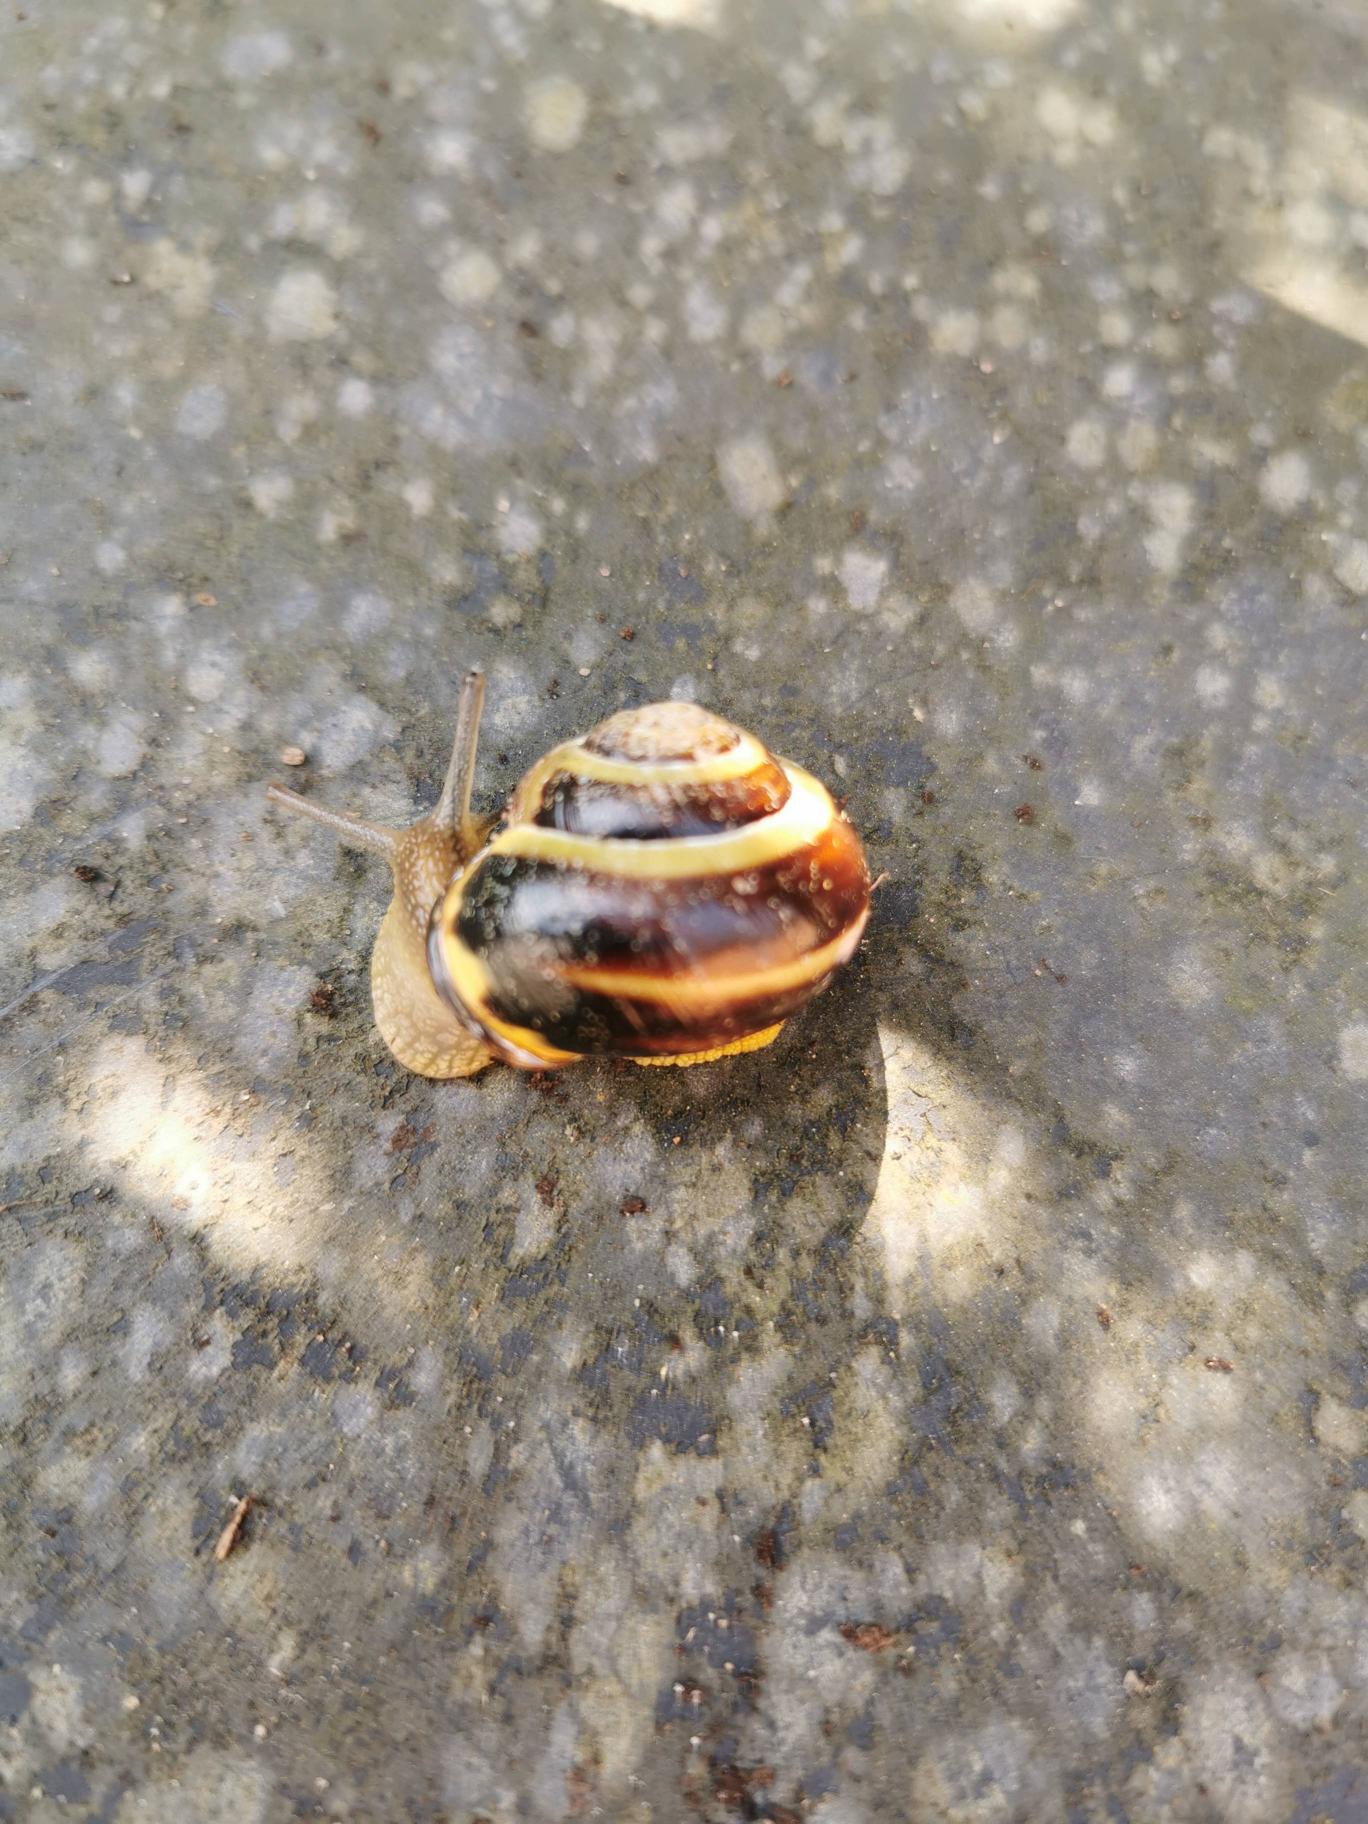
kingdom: Animalia
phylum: Mollusca
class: Gastropoda
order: Stylommatophora
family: Helicidae
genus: Cepaea
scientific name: Cepaea nemoralis
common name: Lundsnegl
